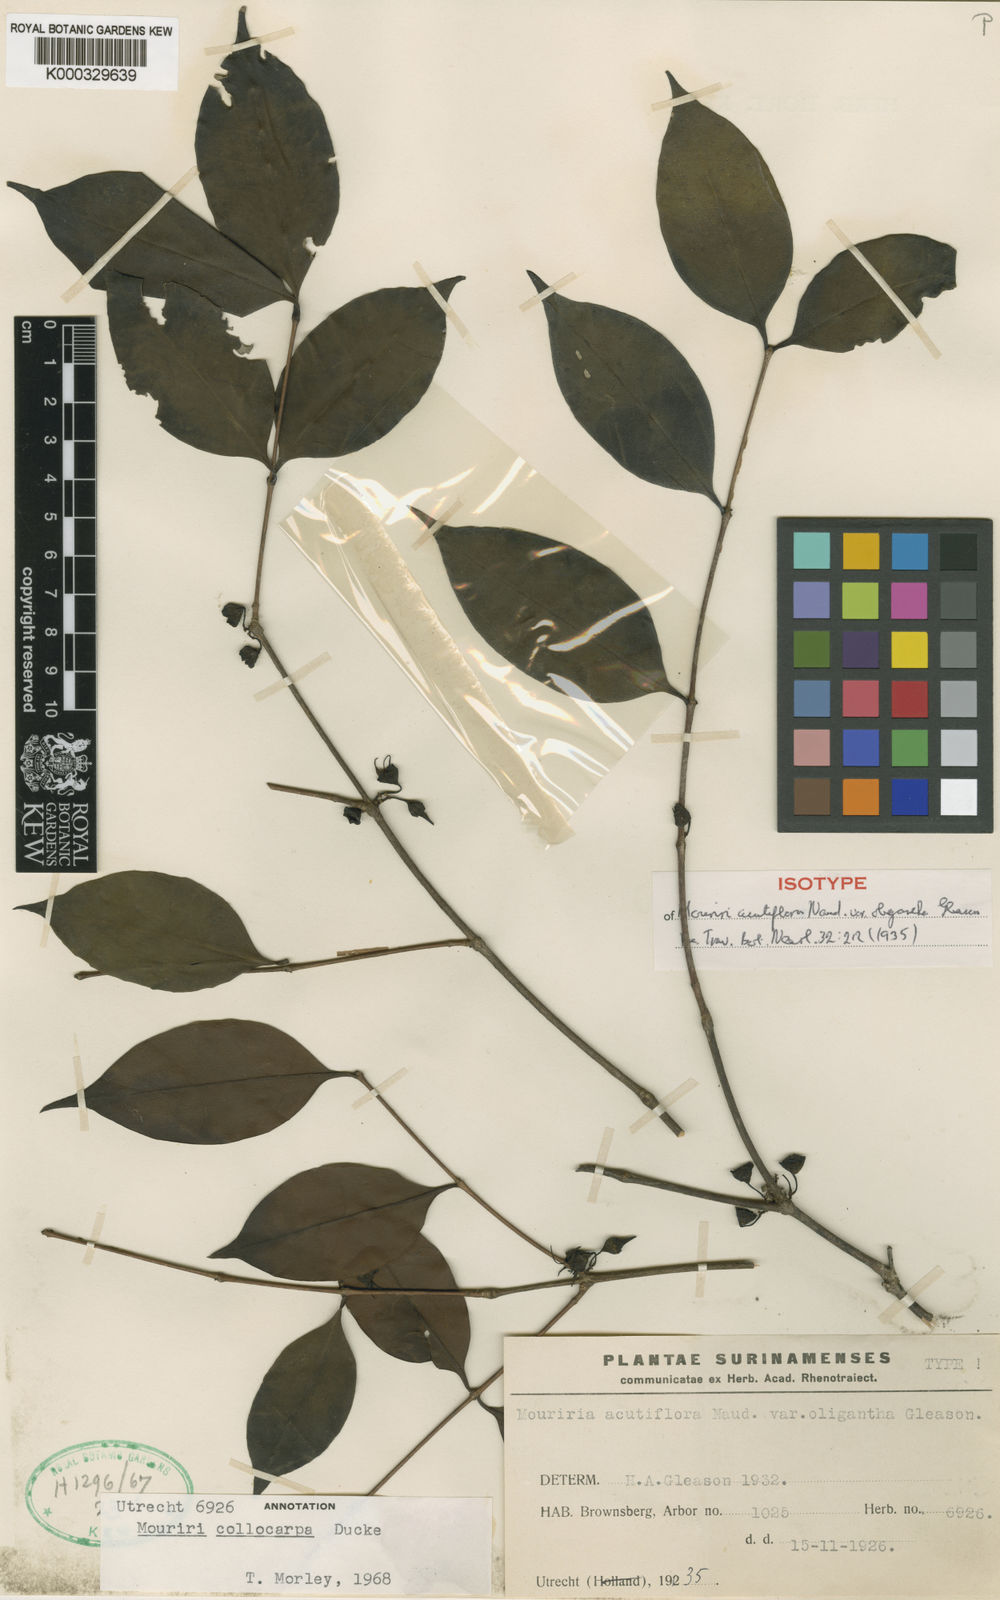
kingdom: Plantae
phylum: Tracheophyta
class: Magnoliopsida
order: Myrtales
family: Melastomataceae
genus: Mouriri
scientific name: Mouriri collocarpa
